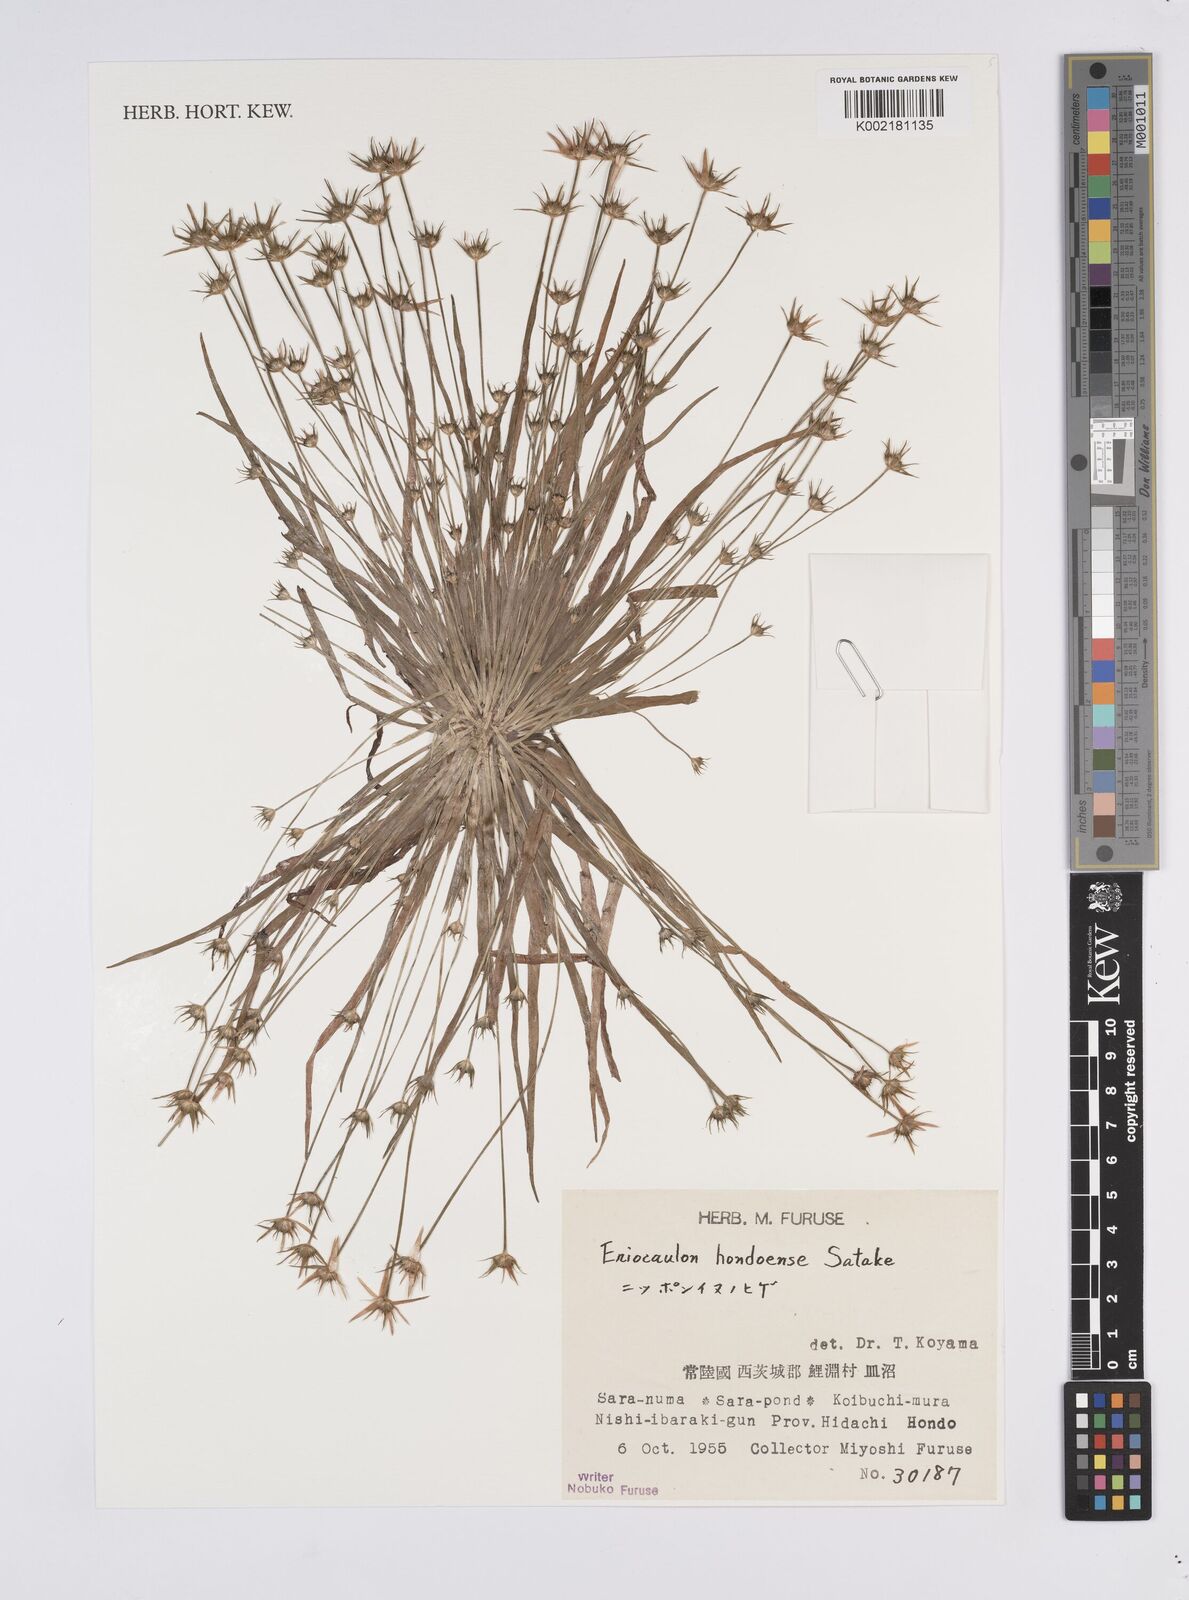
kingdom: Plantae
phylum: Tracheophyta
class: Liliopsida
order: Poales
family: Eriocaulaceae
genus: Eriocaulon
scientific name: Eriocaulon taquetii
